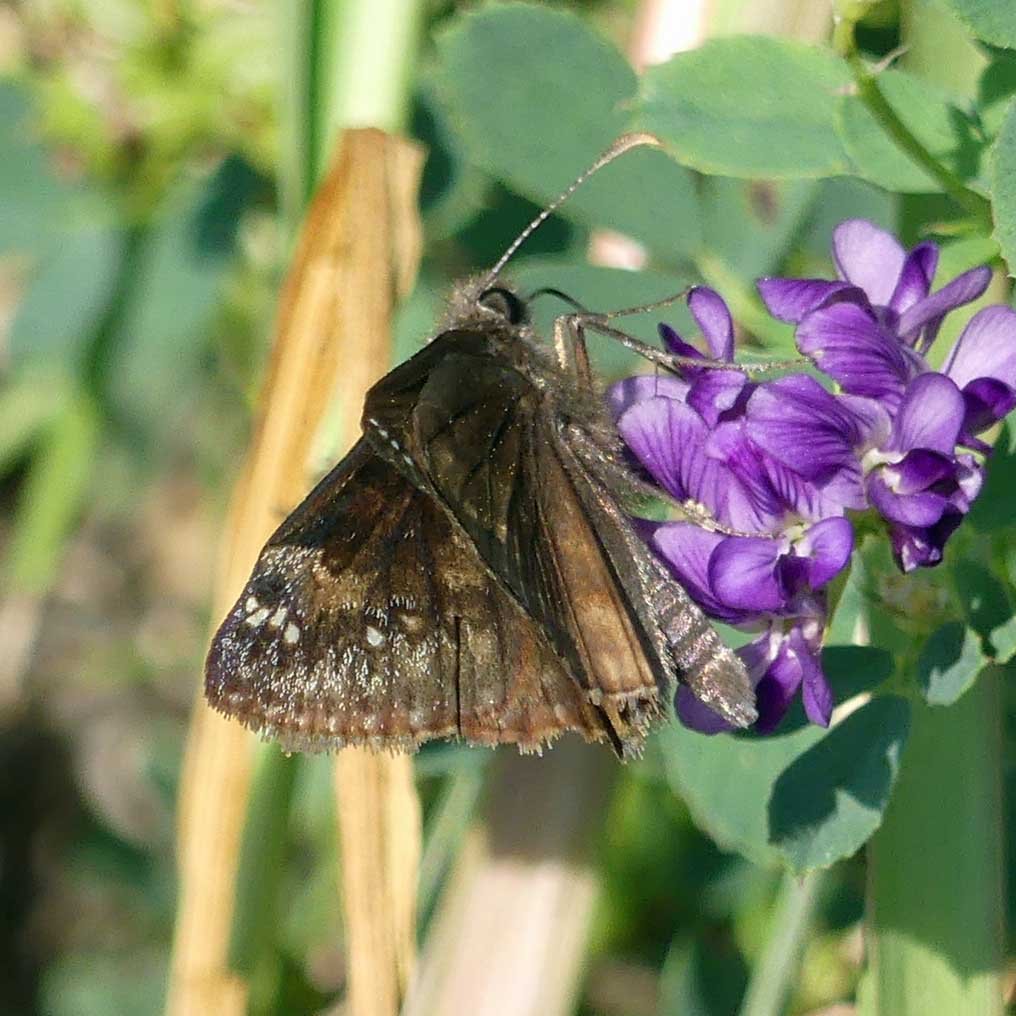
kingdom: Animalia
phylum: Arthropoda
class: Insecta
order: Lepidoptera
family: Hesperiidae
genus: Gesta
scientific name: Gesta
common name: Wild Indigo Duskywing
